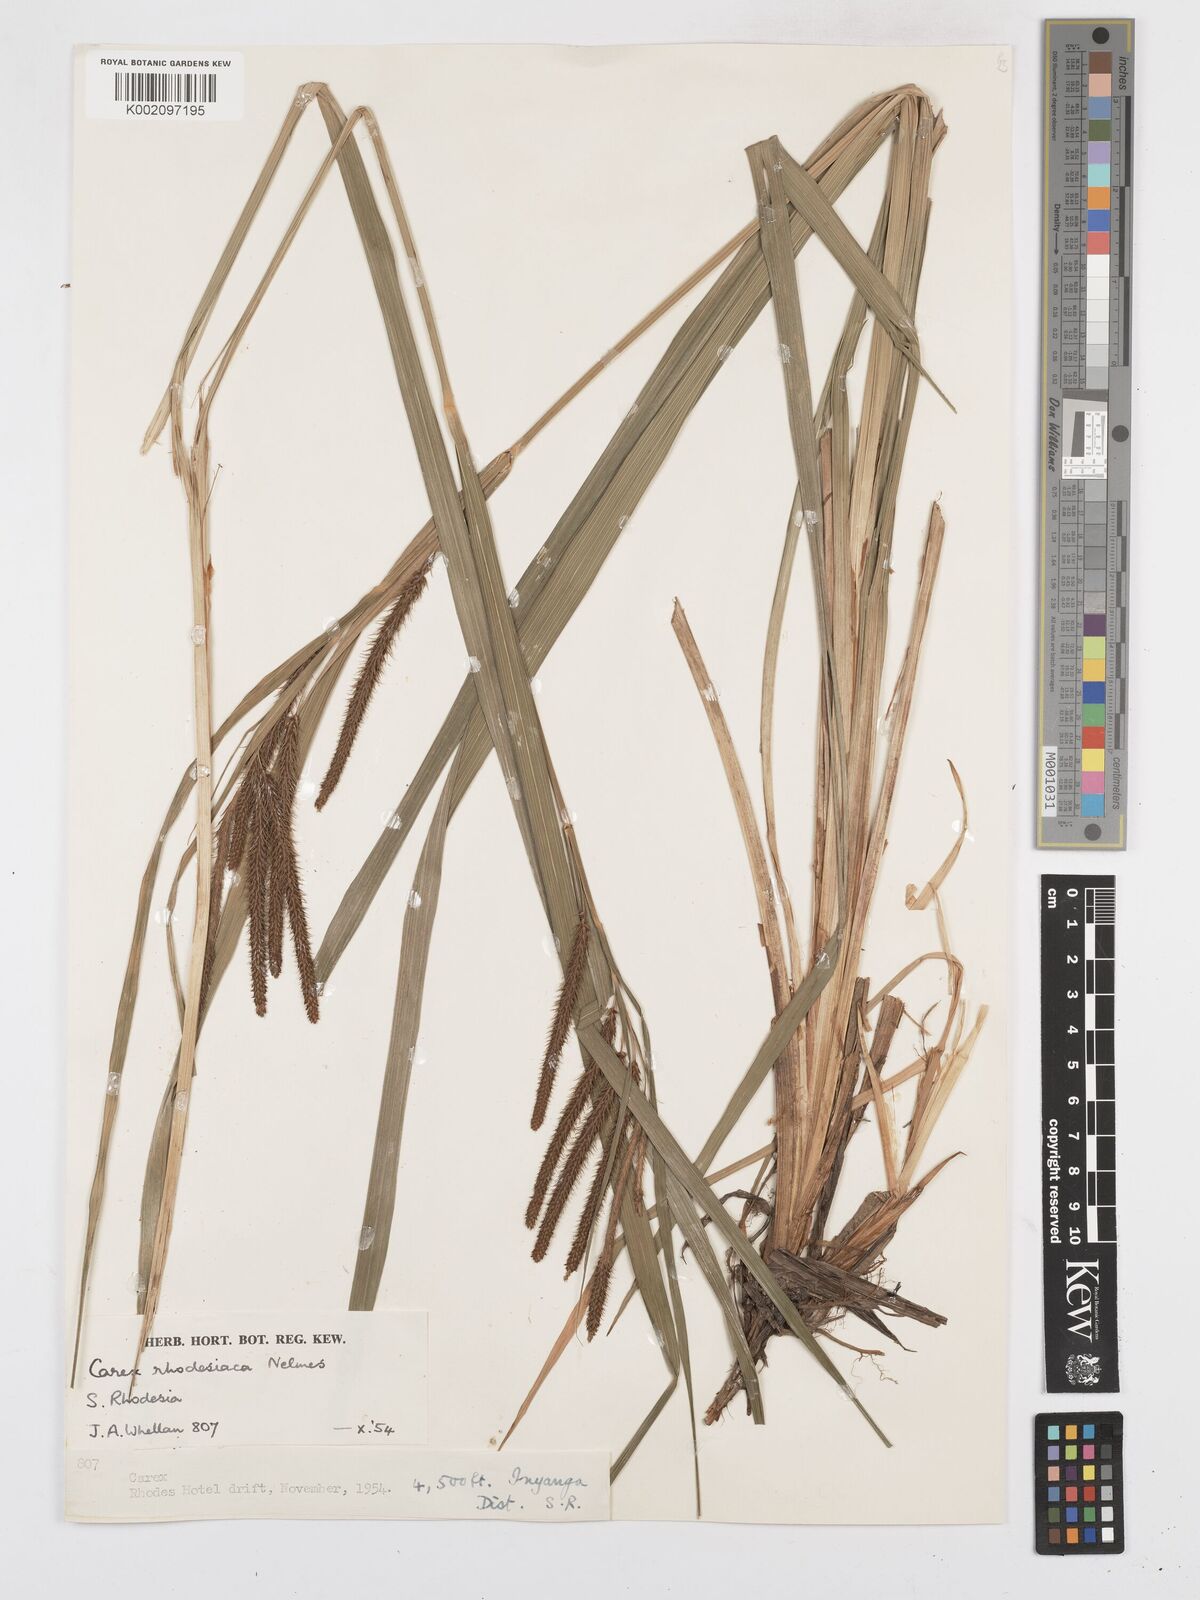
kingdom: Plantae
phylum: Tracheophyta
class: Liliopsida
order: Poales
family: Cyperaceae
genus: Carex
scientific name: Carex rhodesiaca
